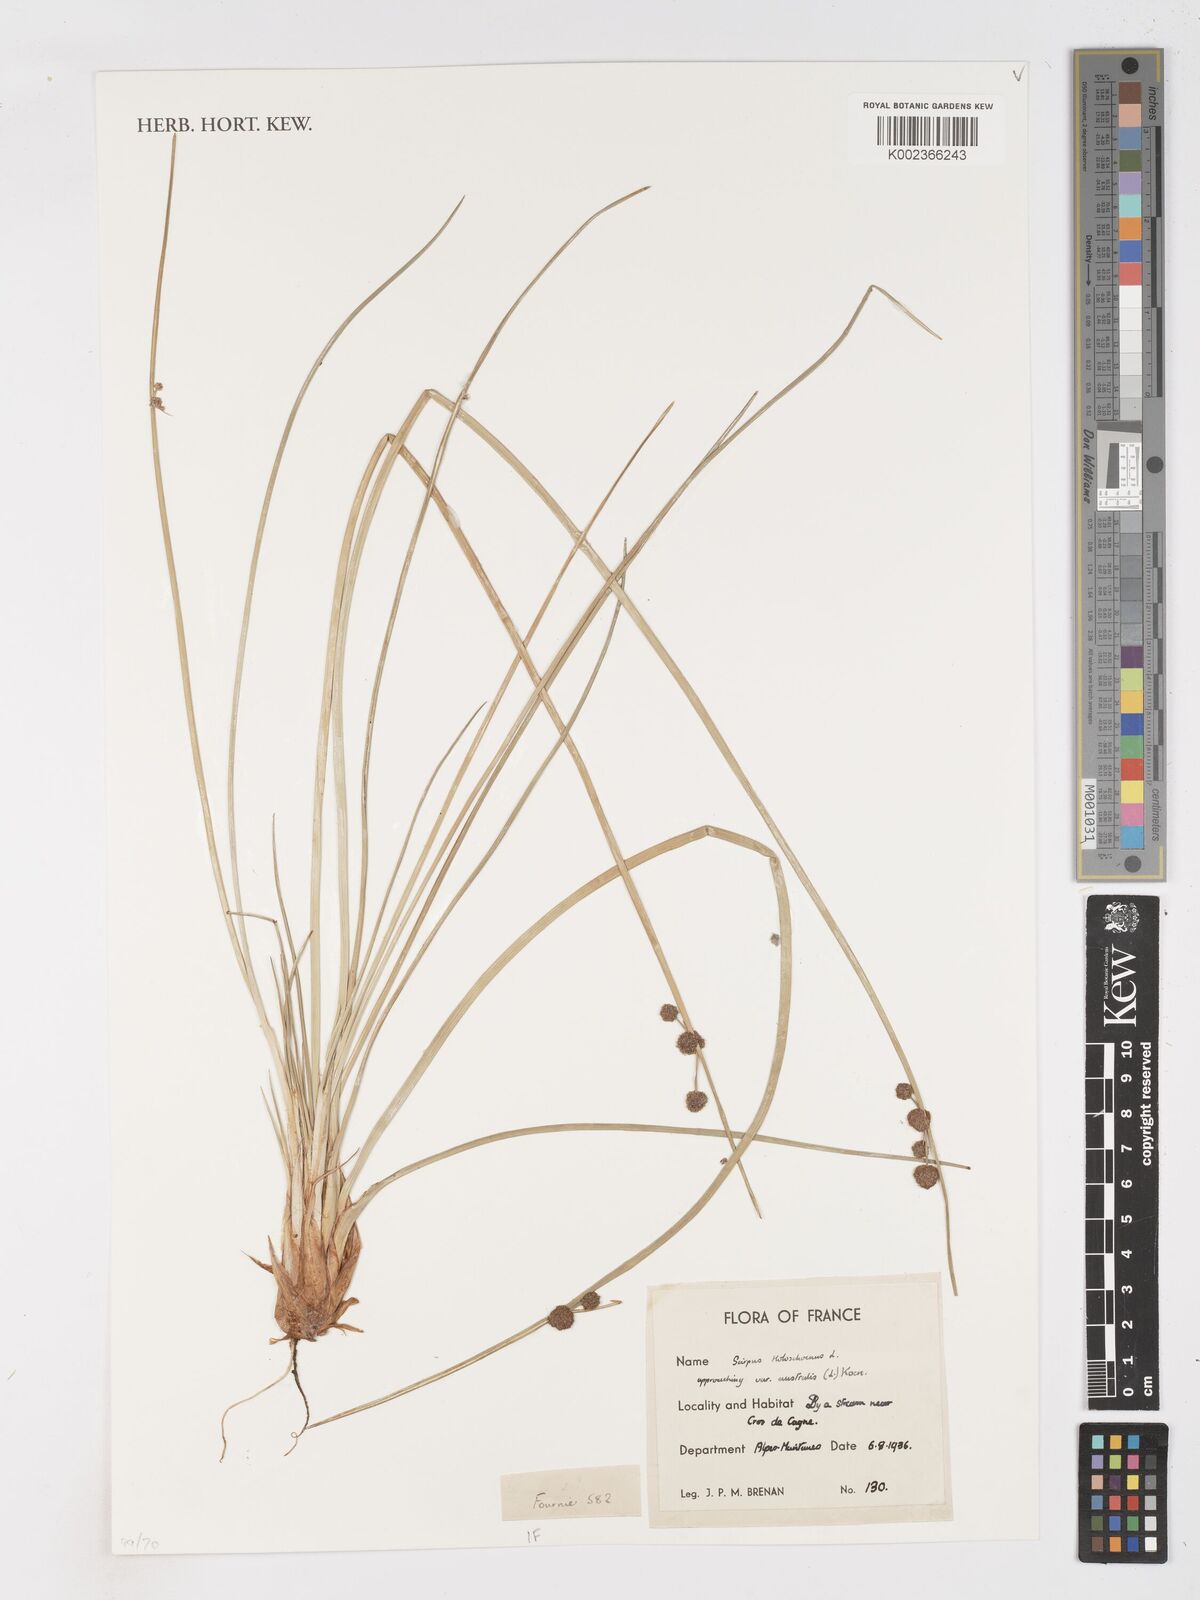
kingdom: Plantae
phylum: Tracheophyta
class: Liliopsida
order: Poales
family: Cyperaceae
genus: Scirpoides
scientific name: Scirpoides holoschoenus
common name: Round-headed club-rush
